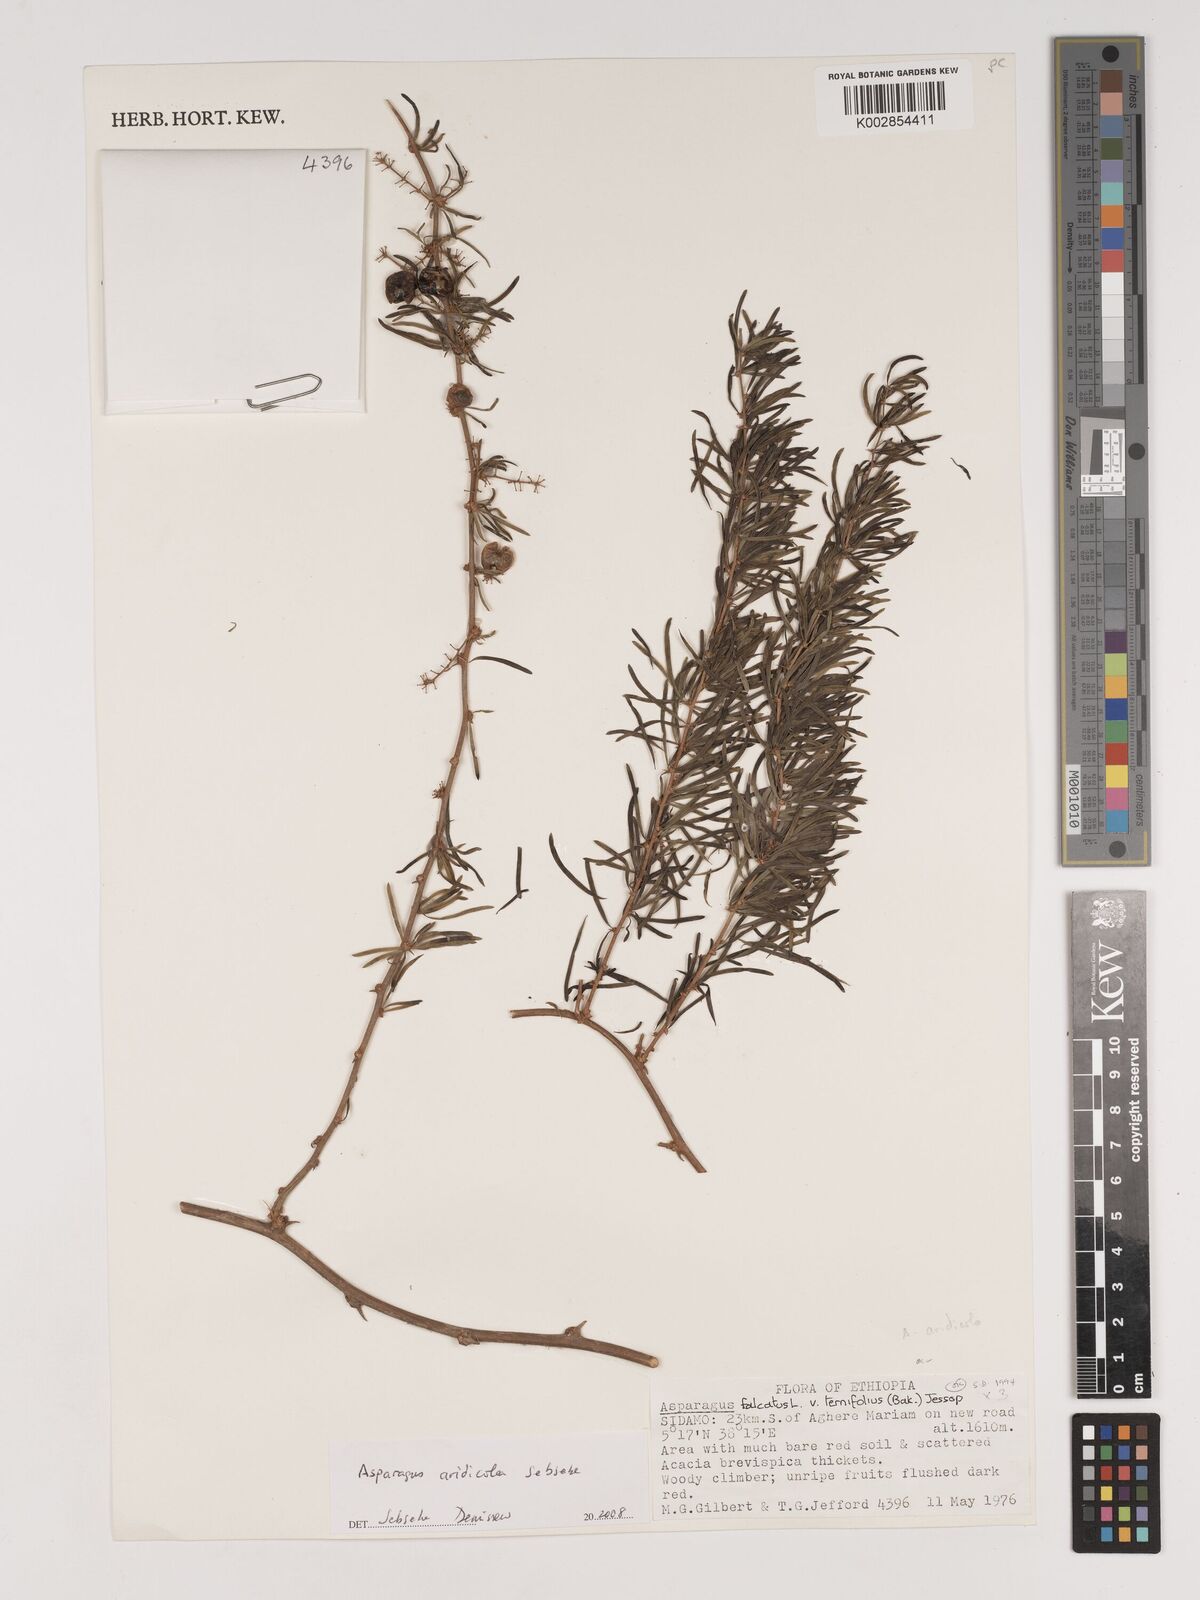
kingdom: Plantae
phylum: Tracheophyta
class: Liliopsida
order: Asparagales
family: Asparagaceae
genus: Asparagus
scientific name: Asparagus aridicola
